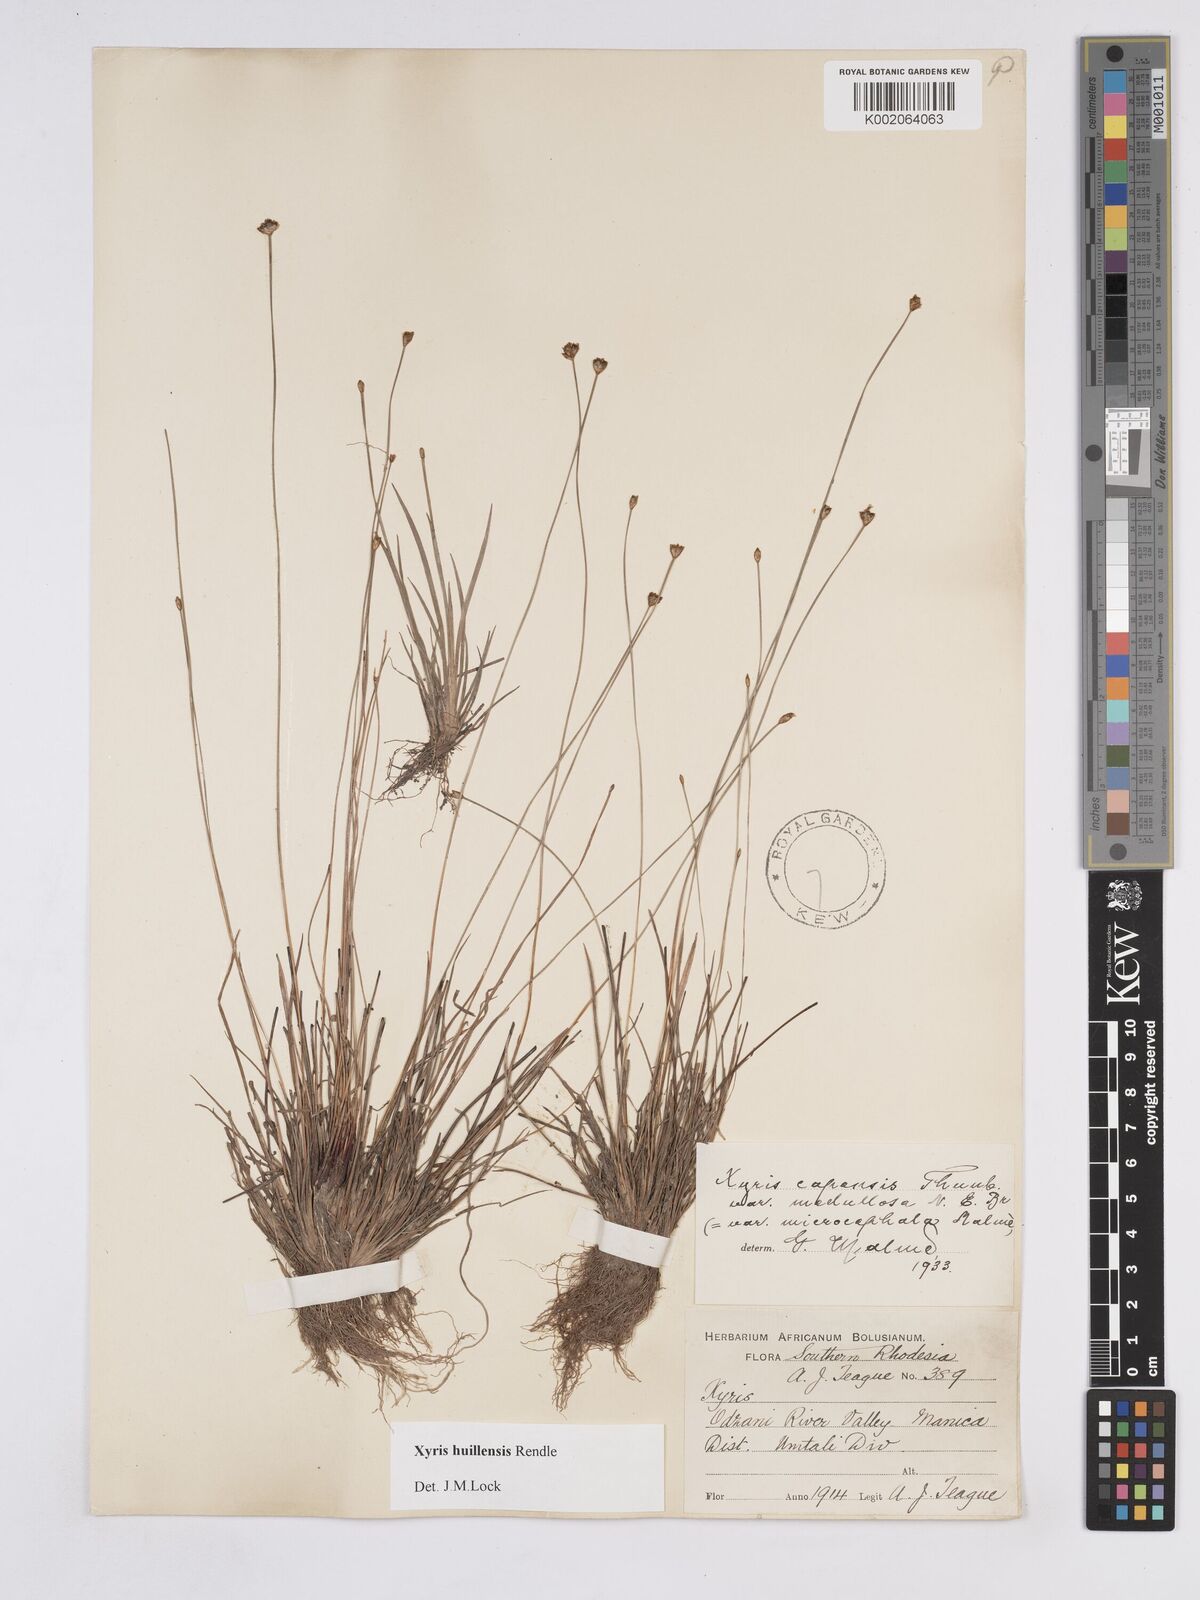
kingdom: Plantae
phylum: Tracheophyta
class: Liliopsida
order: Poales
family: Xyridaceae
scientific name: Xyridaceae
